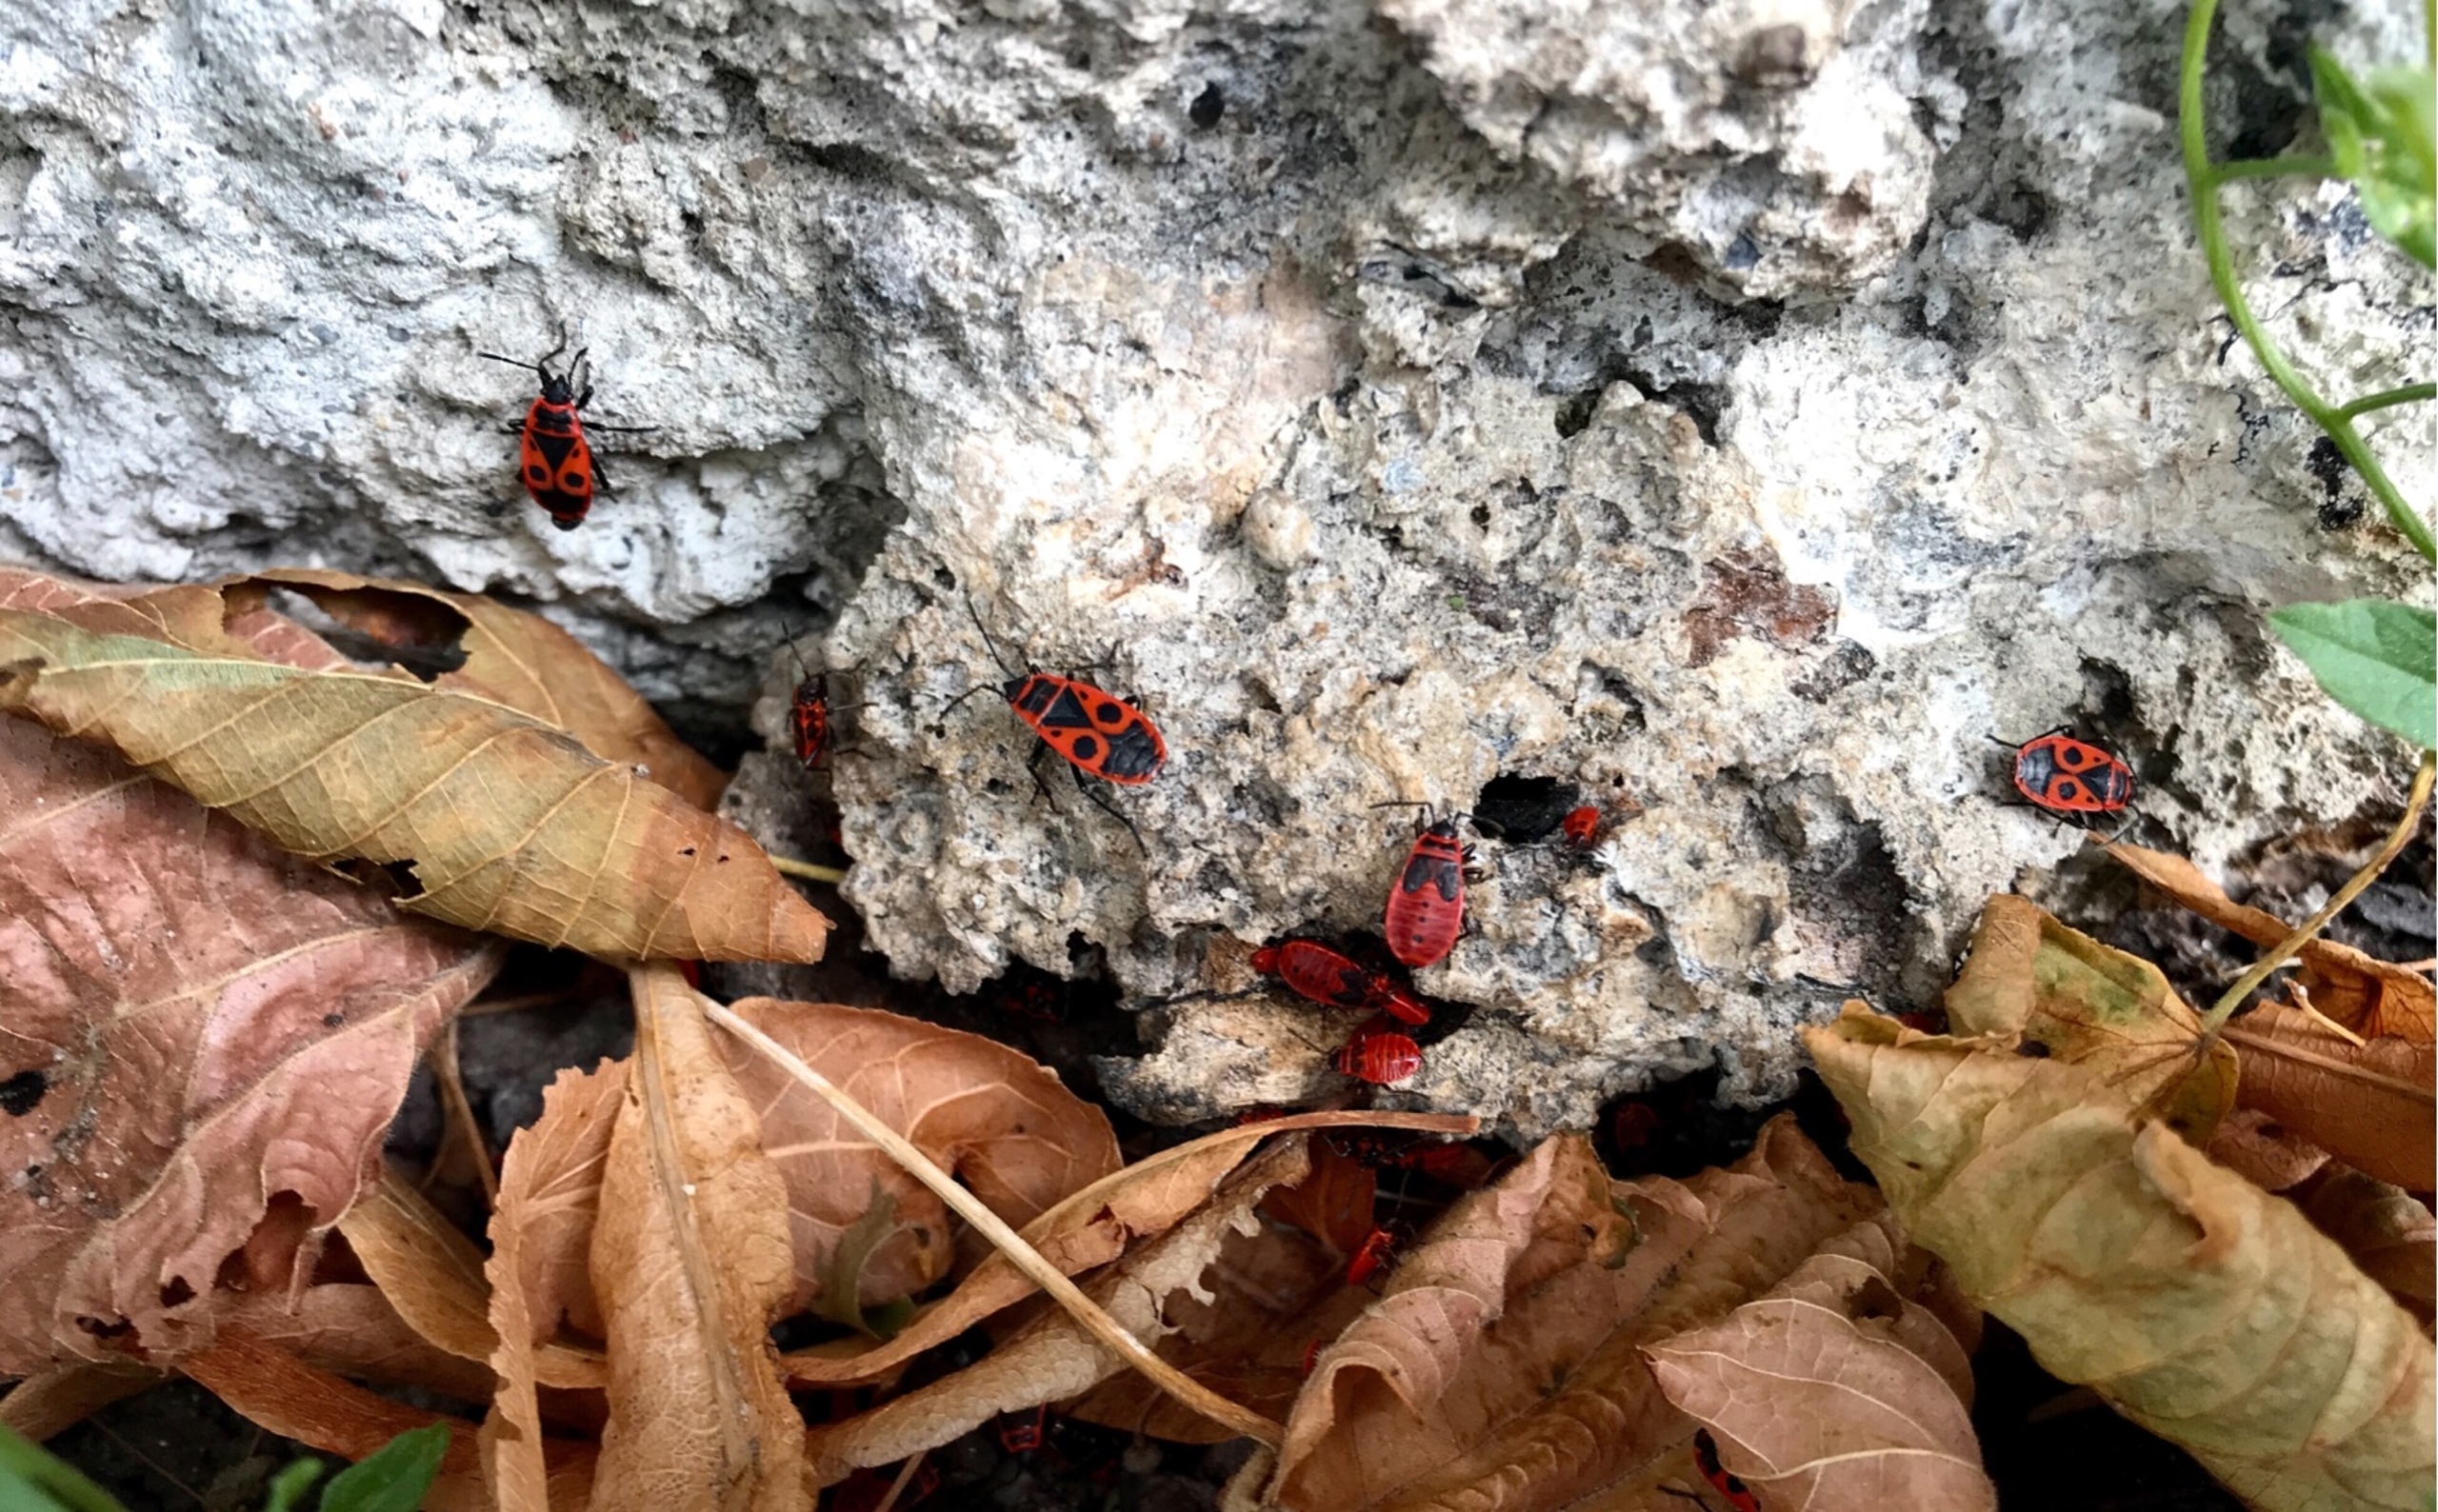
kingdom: Animalia
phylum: Arthropoda
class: Insecta
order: Hemiptera
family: Pyrrhocoridae
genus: Pyrrhocoris
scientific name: Pyrrhocoris apterus
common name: Ildtæge
